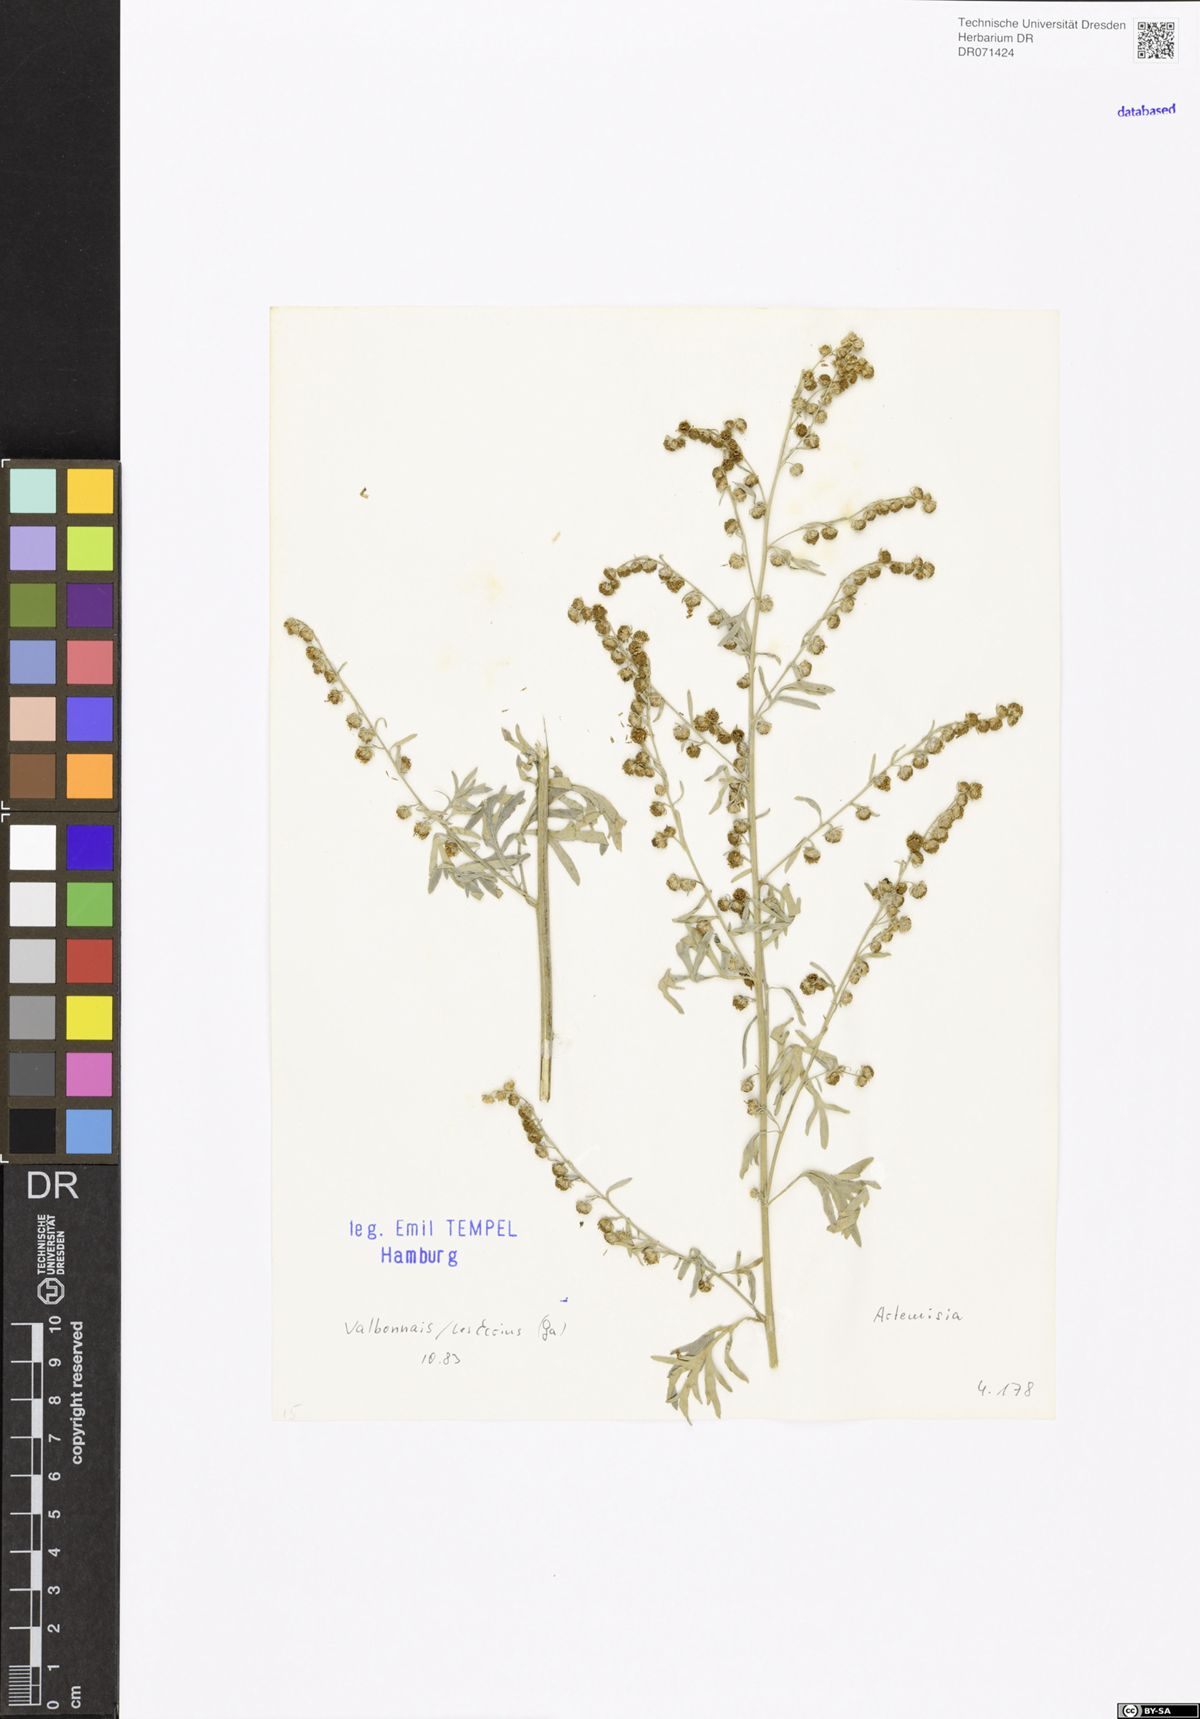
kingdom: Plantae
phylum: Tracheophyta
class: Magnoliopsida
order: Asterales
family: Asteraceae
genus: Artemisia
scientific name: Artemisia
